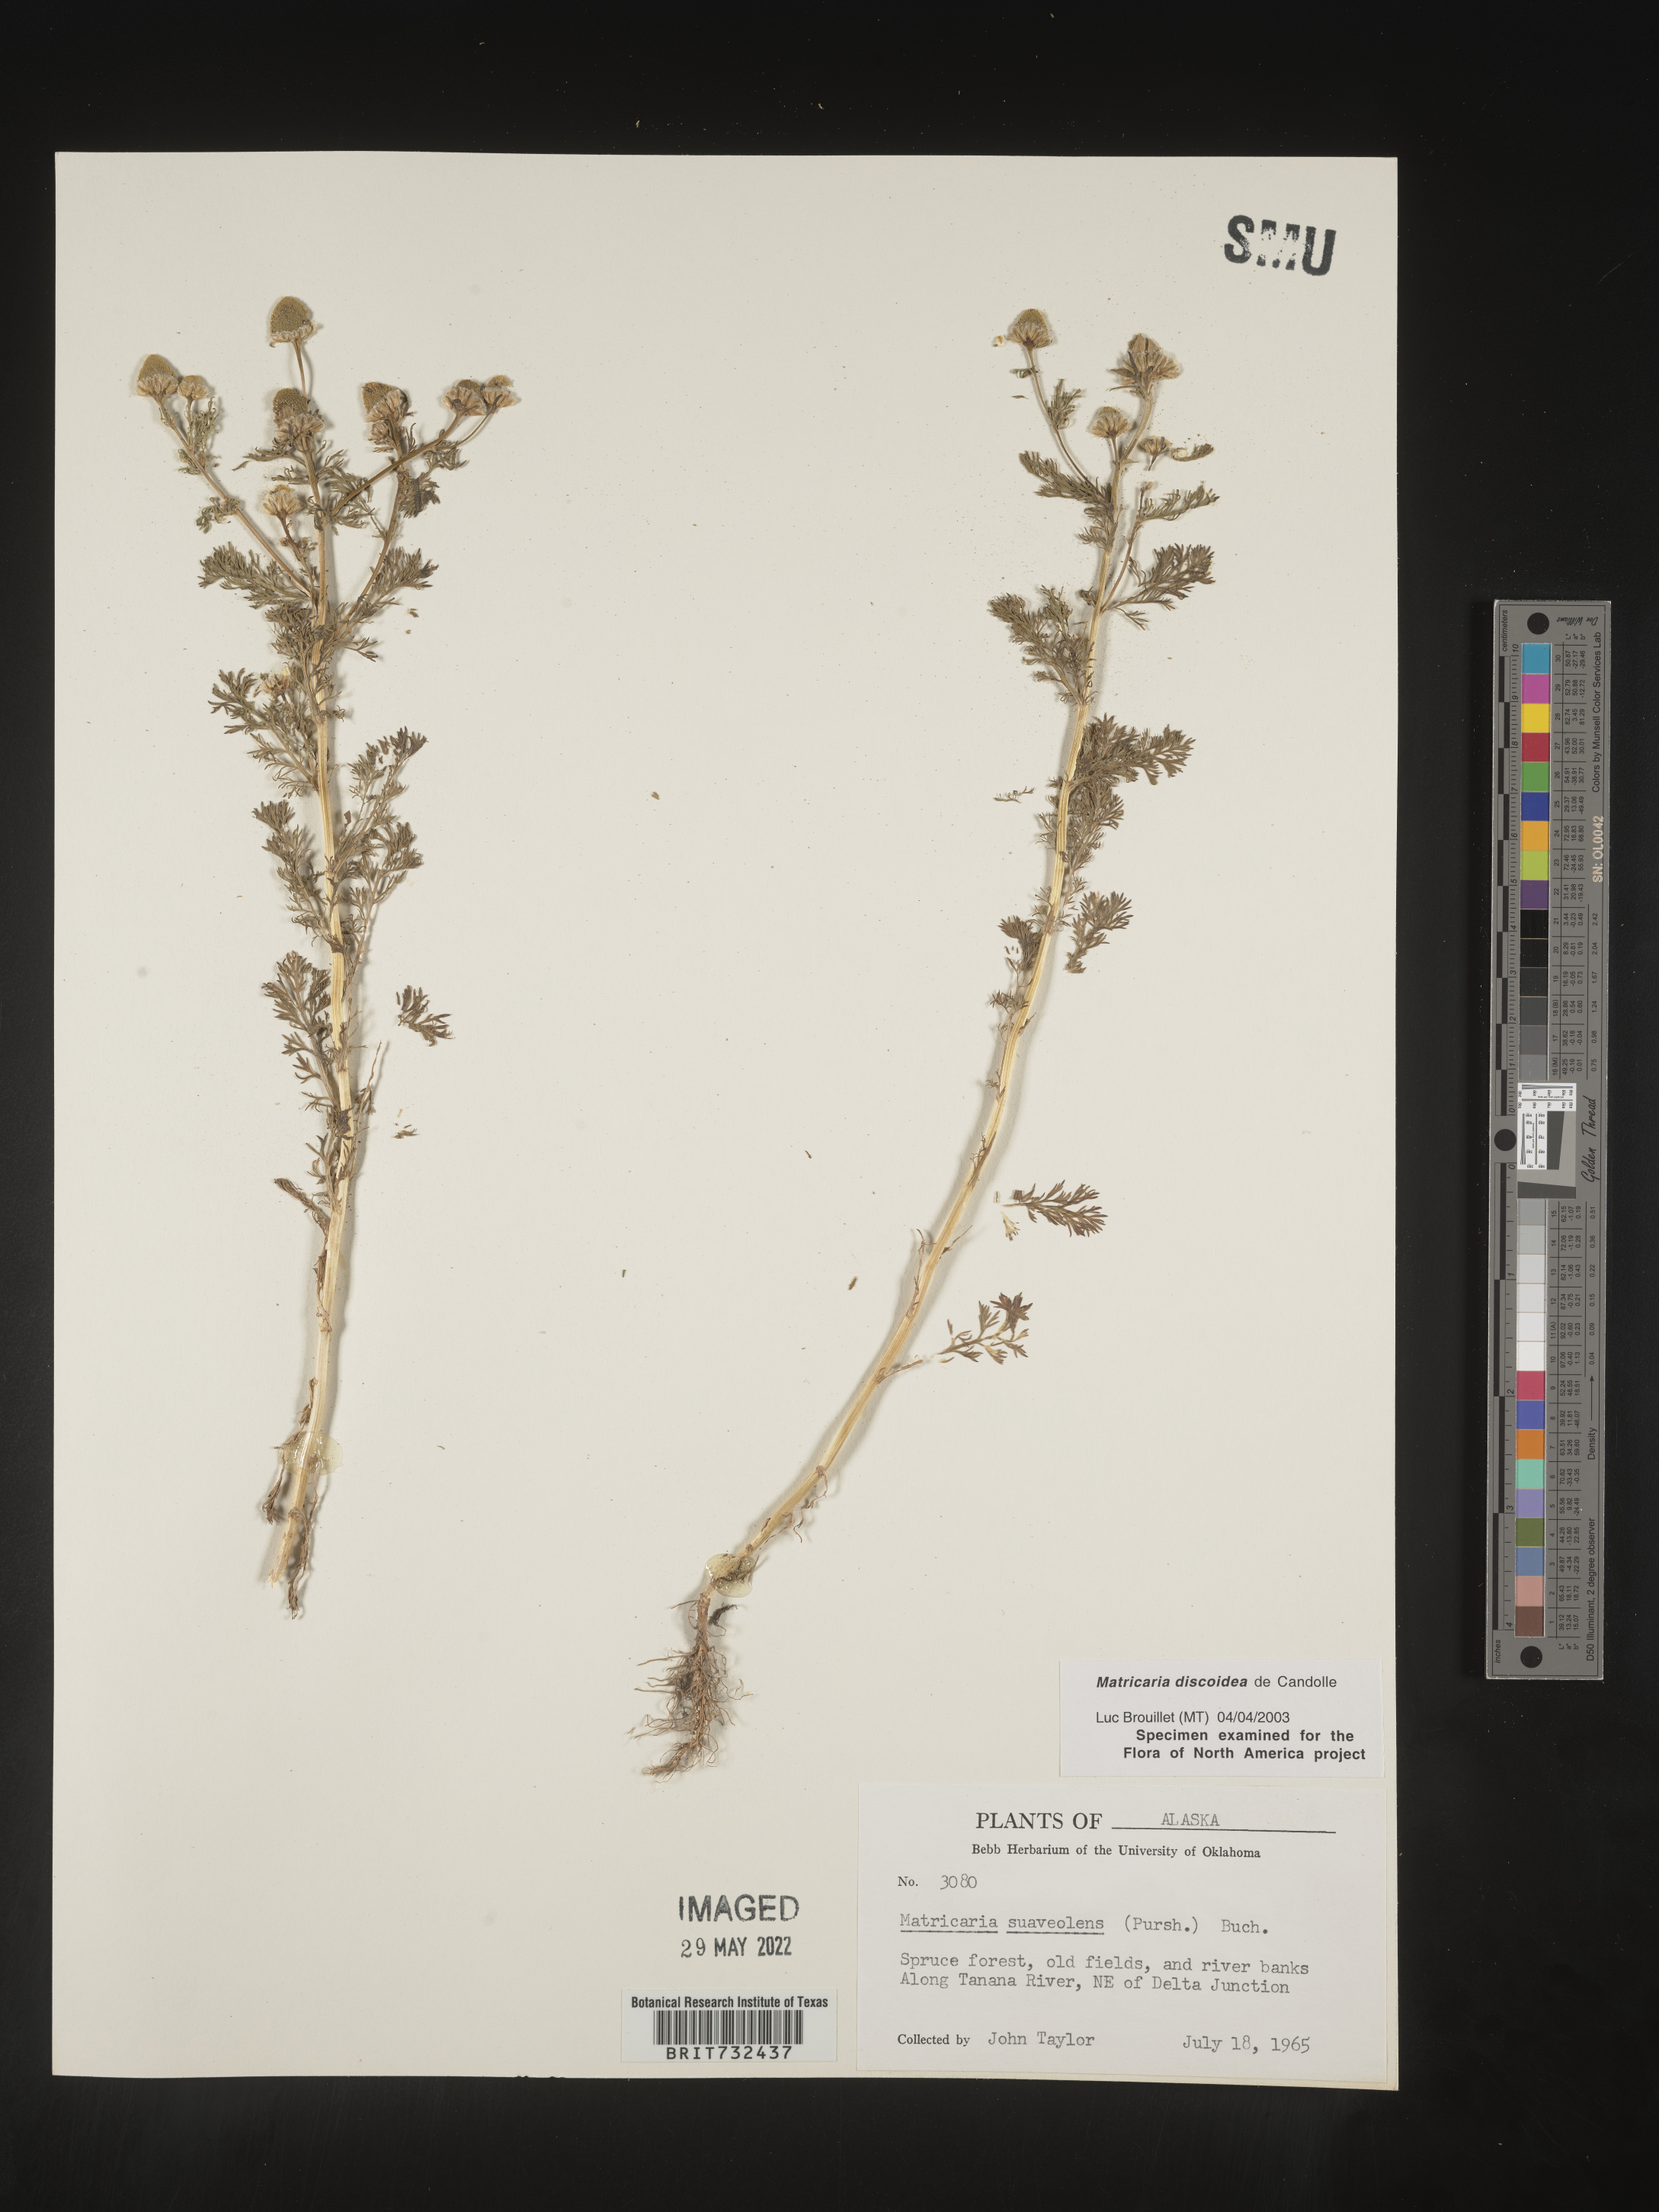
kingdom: Plantae
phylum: Tracheophyta
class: Magnoliopsida
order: Asterales
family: Asteraceae
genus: Matricaria
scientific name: Matricaria discoidea
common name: Disc mayweed
